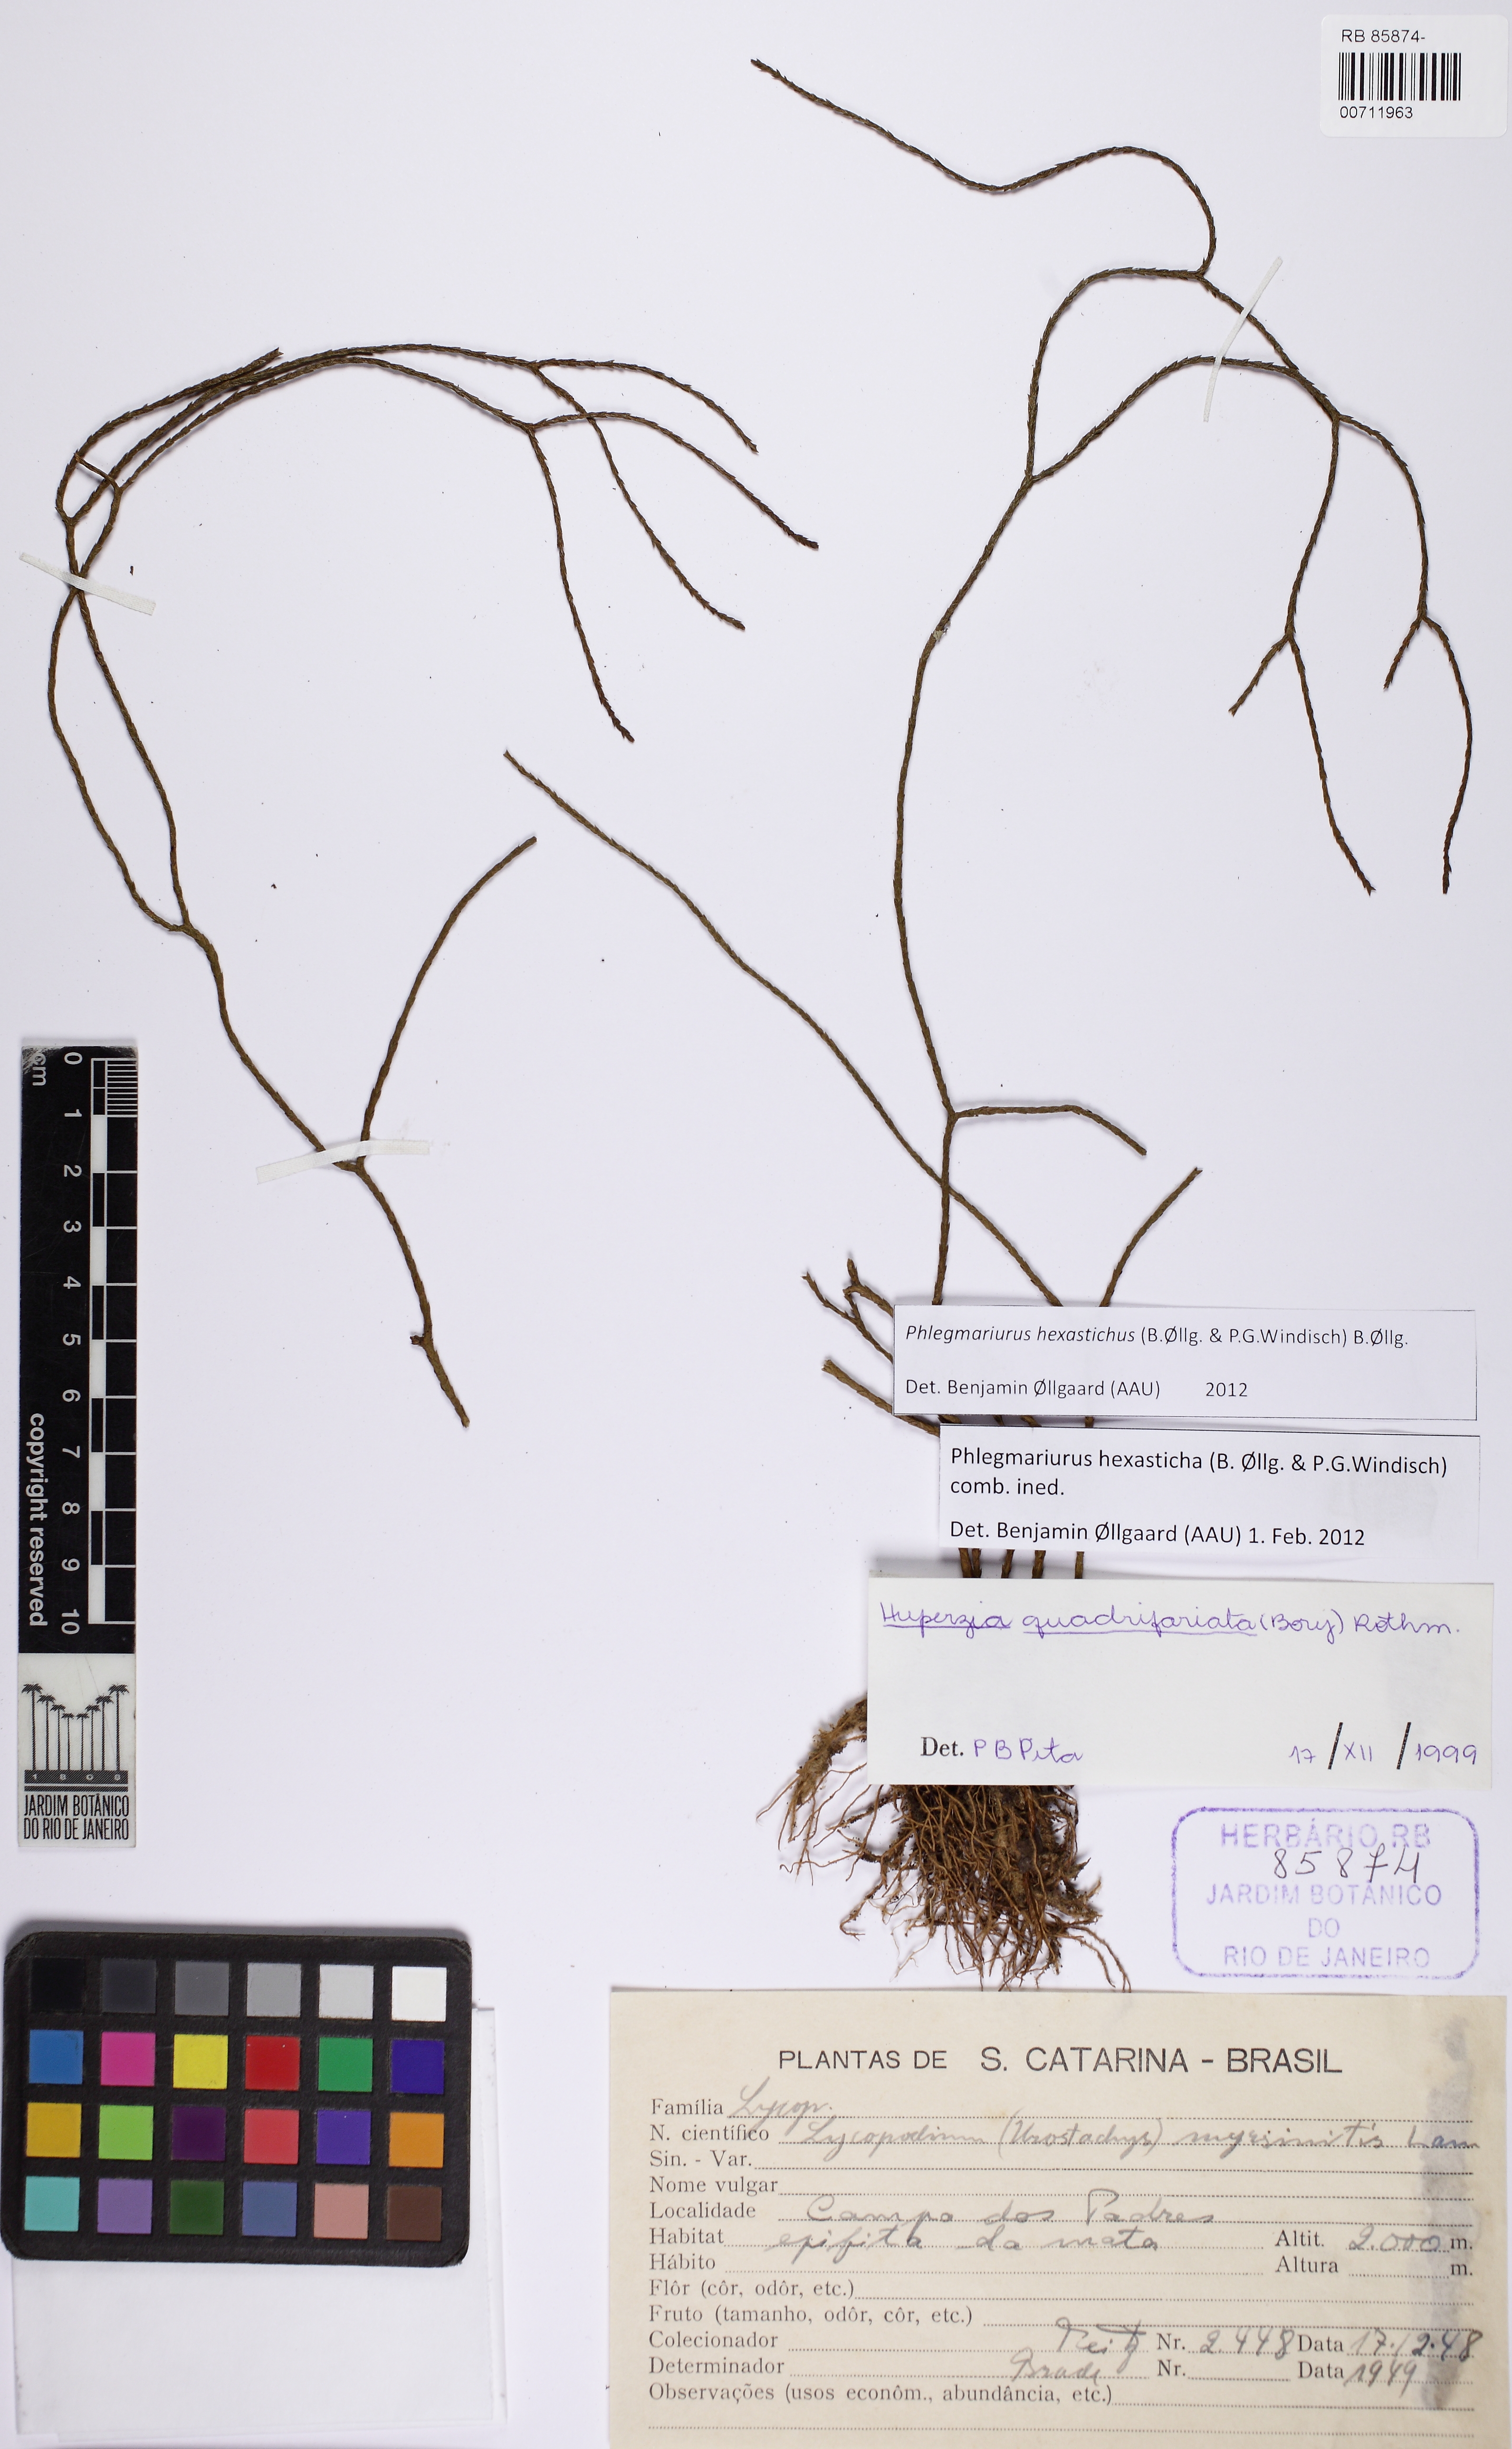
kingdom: Plantae
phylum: Tracheophyta
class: Lycopodiopsida
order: Lycopodiales
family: Lycopodiaceae
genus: Phlegmariurus
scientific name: Phlegmariurus hexastichus
